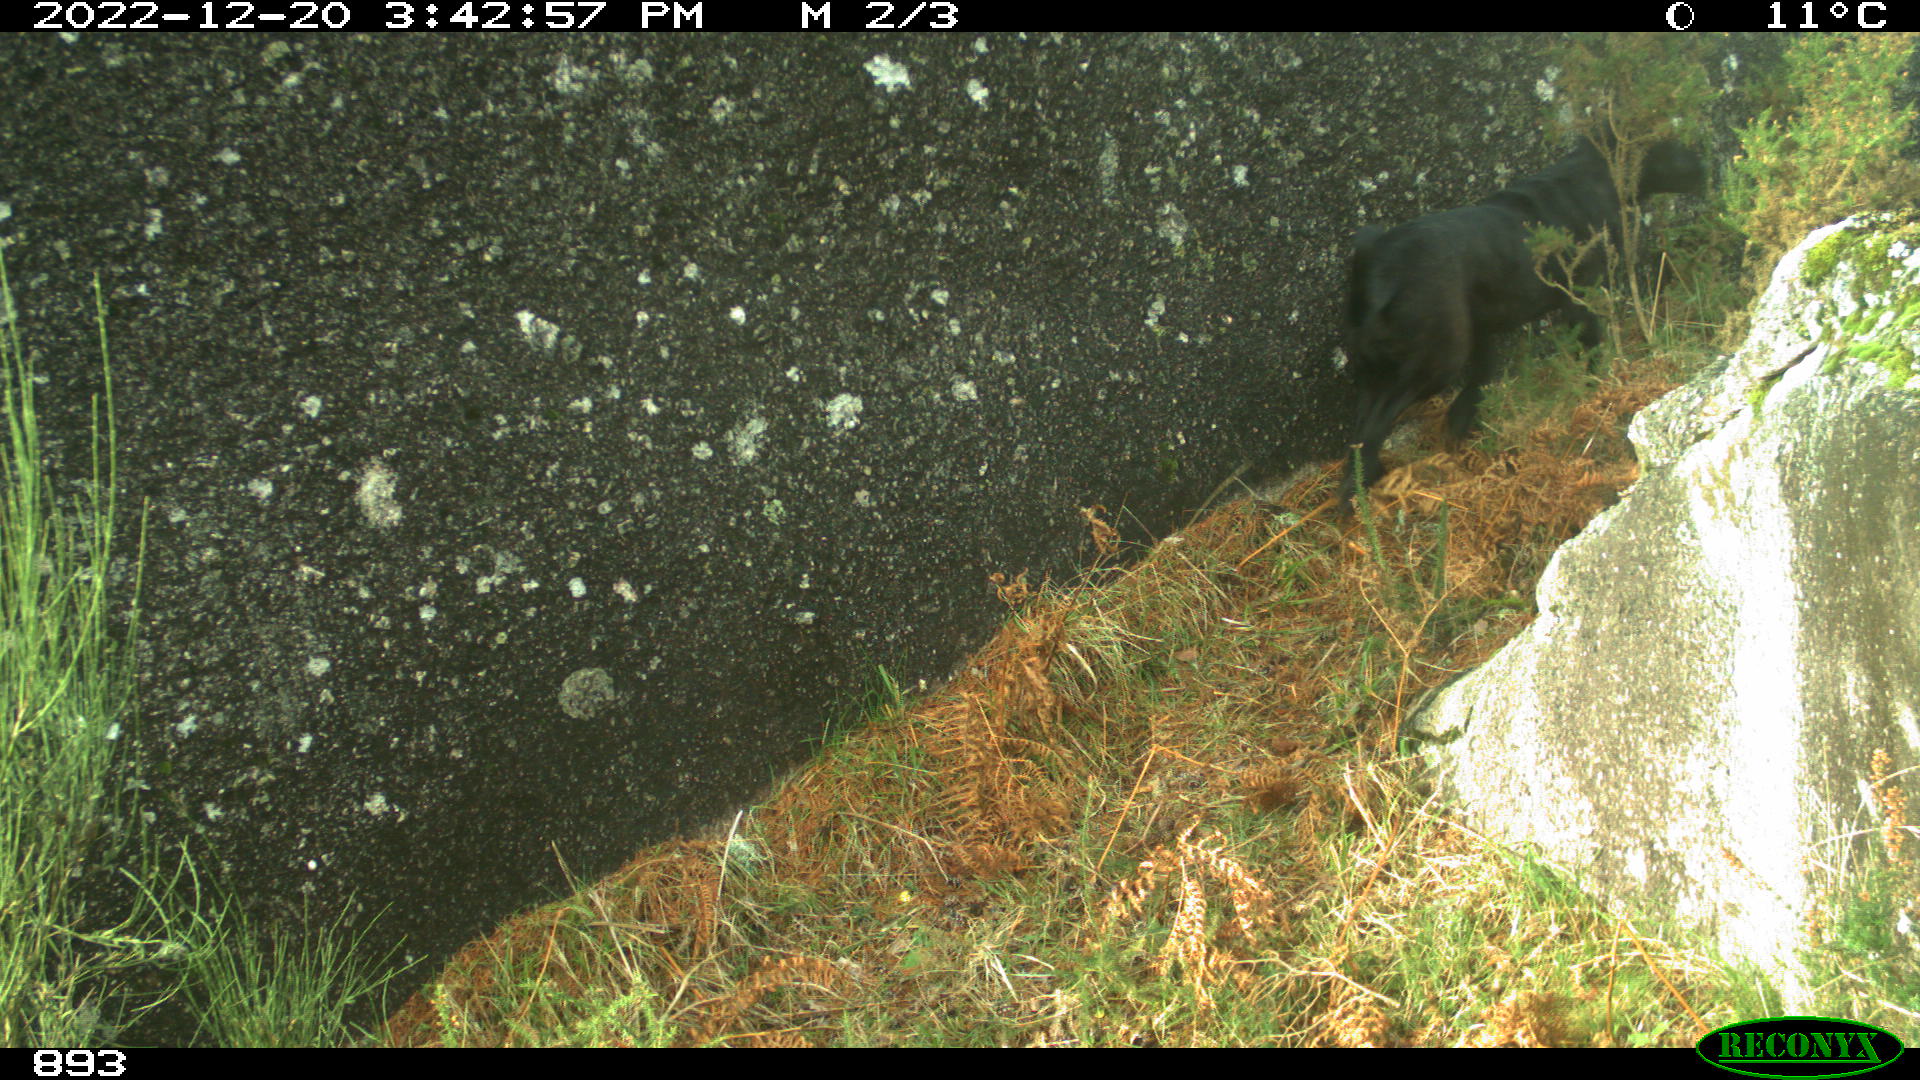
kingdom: Animalia
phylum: Chordata
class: Mammalia
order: Carnivora
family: Canidae
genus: Canis
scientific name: Canis lupus
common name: Gray wolf
